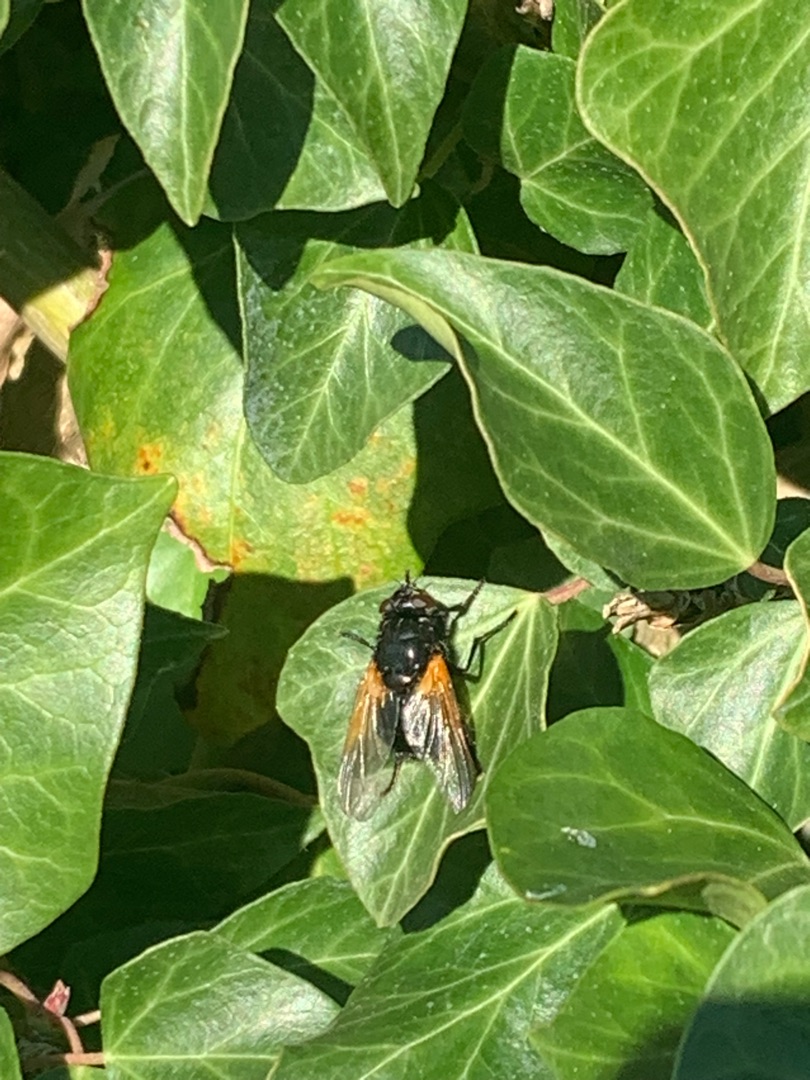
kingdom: Animalia
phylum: Arthropoda
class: Insecta
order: Diptera
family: Muscidae
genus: Mesembrina
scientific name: Mesembrina meridiana
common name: Gulvinget flue
